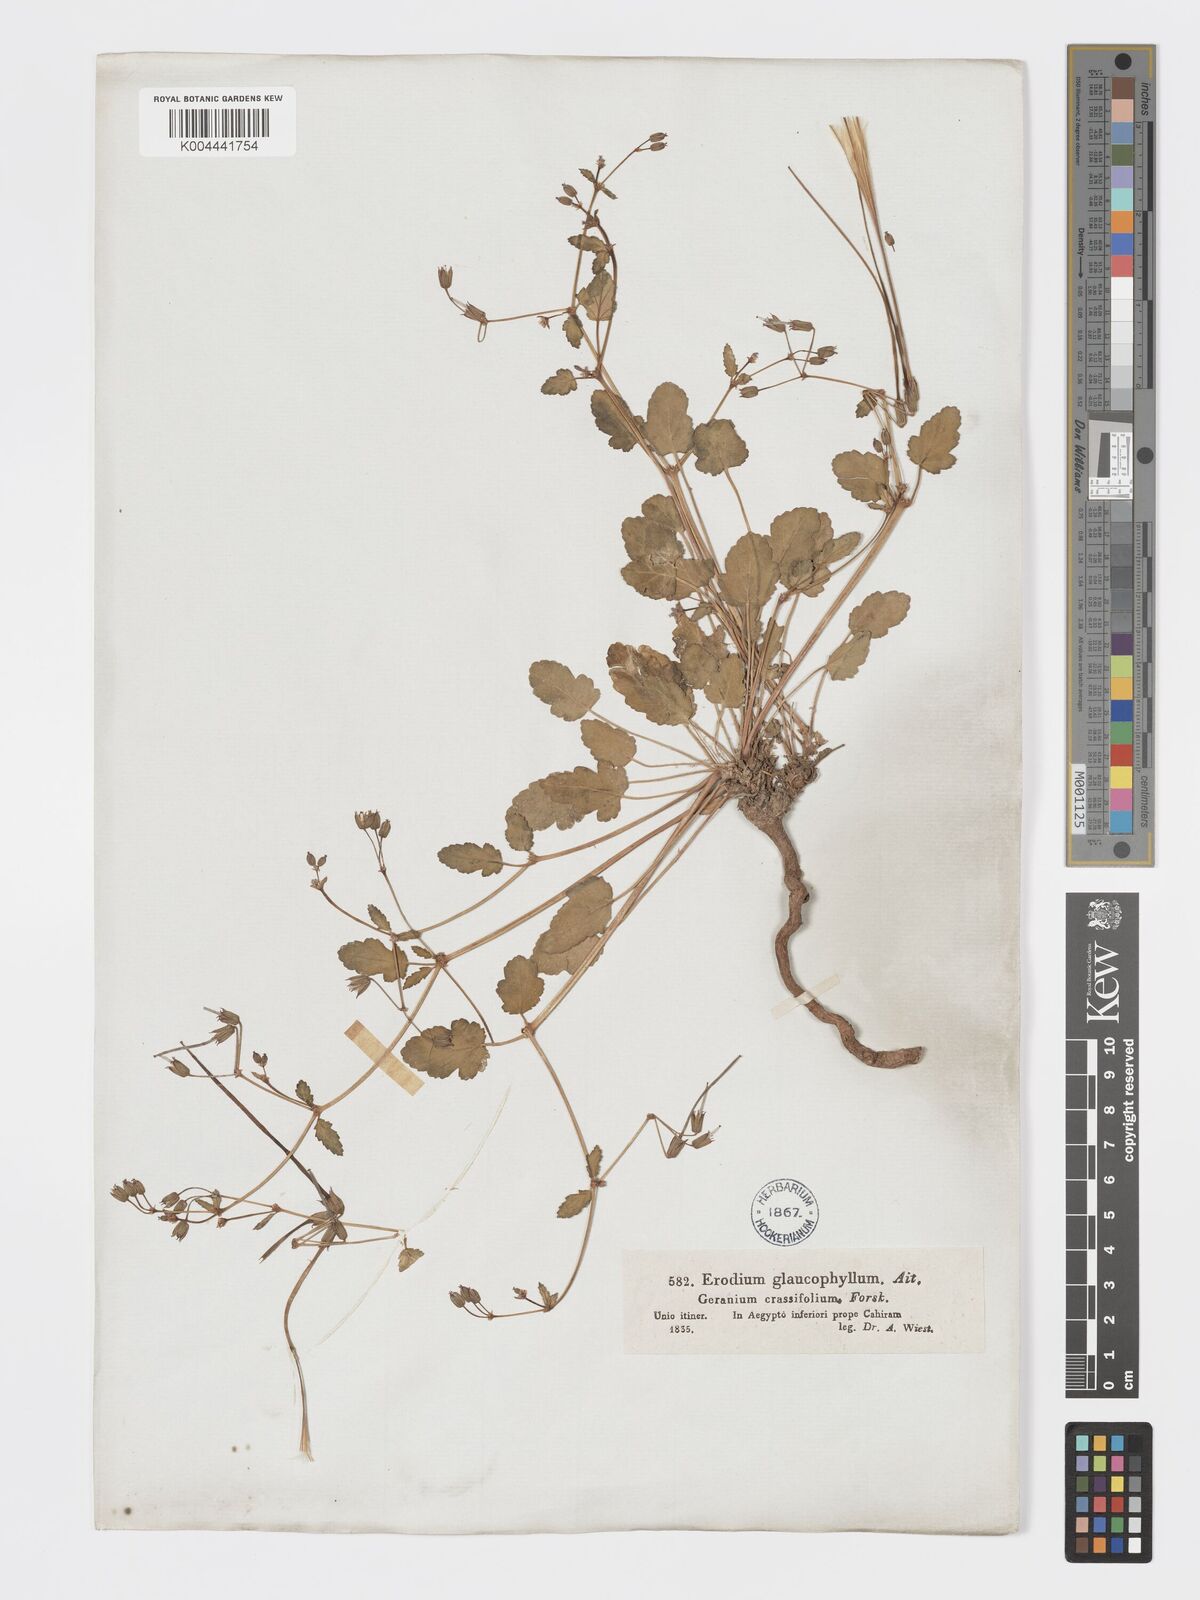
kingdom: Plantae
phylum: Tracheophyta
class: Magnoliopsida
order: Geraniales
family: Geraniaceae
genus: Erodium
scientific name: Erodium glaucophyllum
